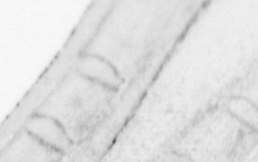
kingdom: Chromista
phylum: Ochrophyta
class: Bacillariophyceae
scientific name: Bacillariophyceae
